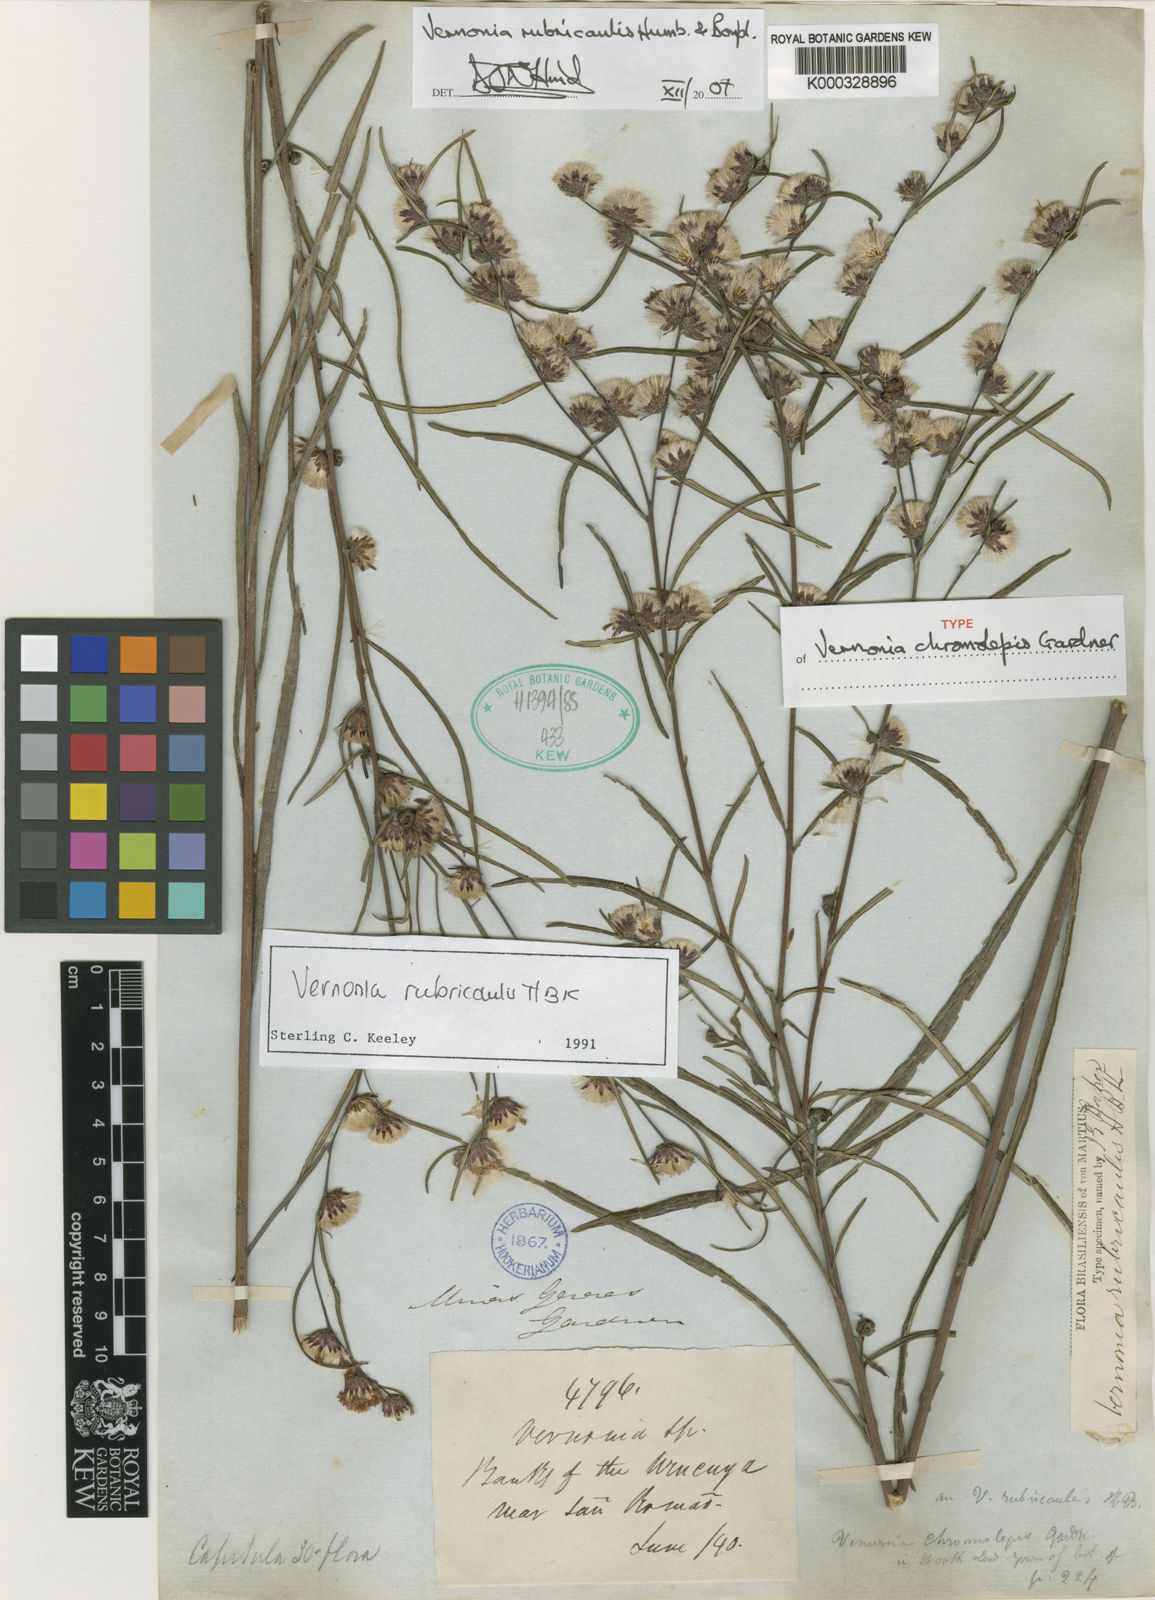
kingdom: Plantae
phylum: Tracheophyta
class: Magnoliopsida
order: Asterales
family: Asteraceae
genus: Lessingianthus
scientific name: Lessingianthus rubricaulis
